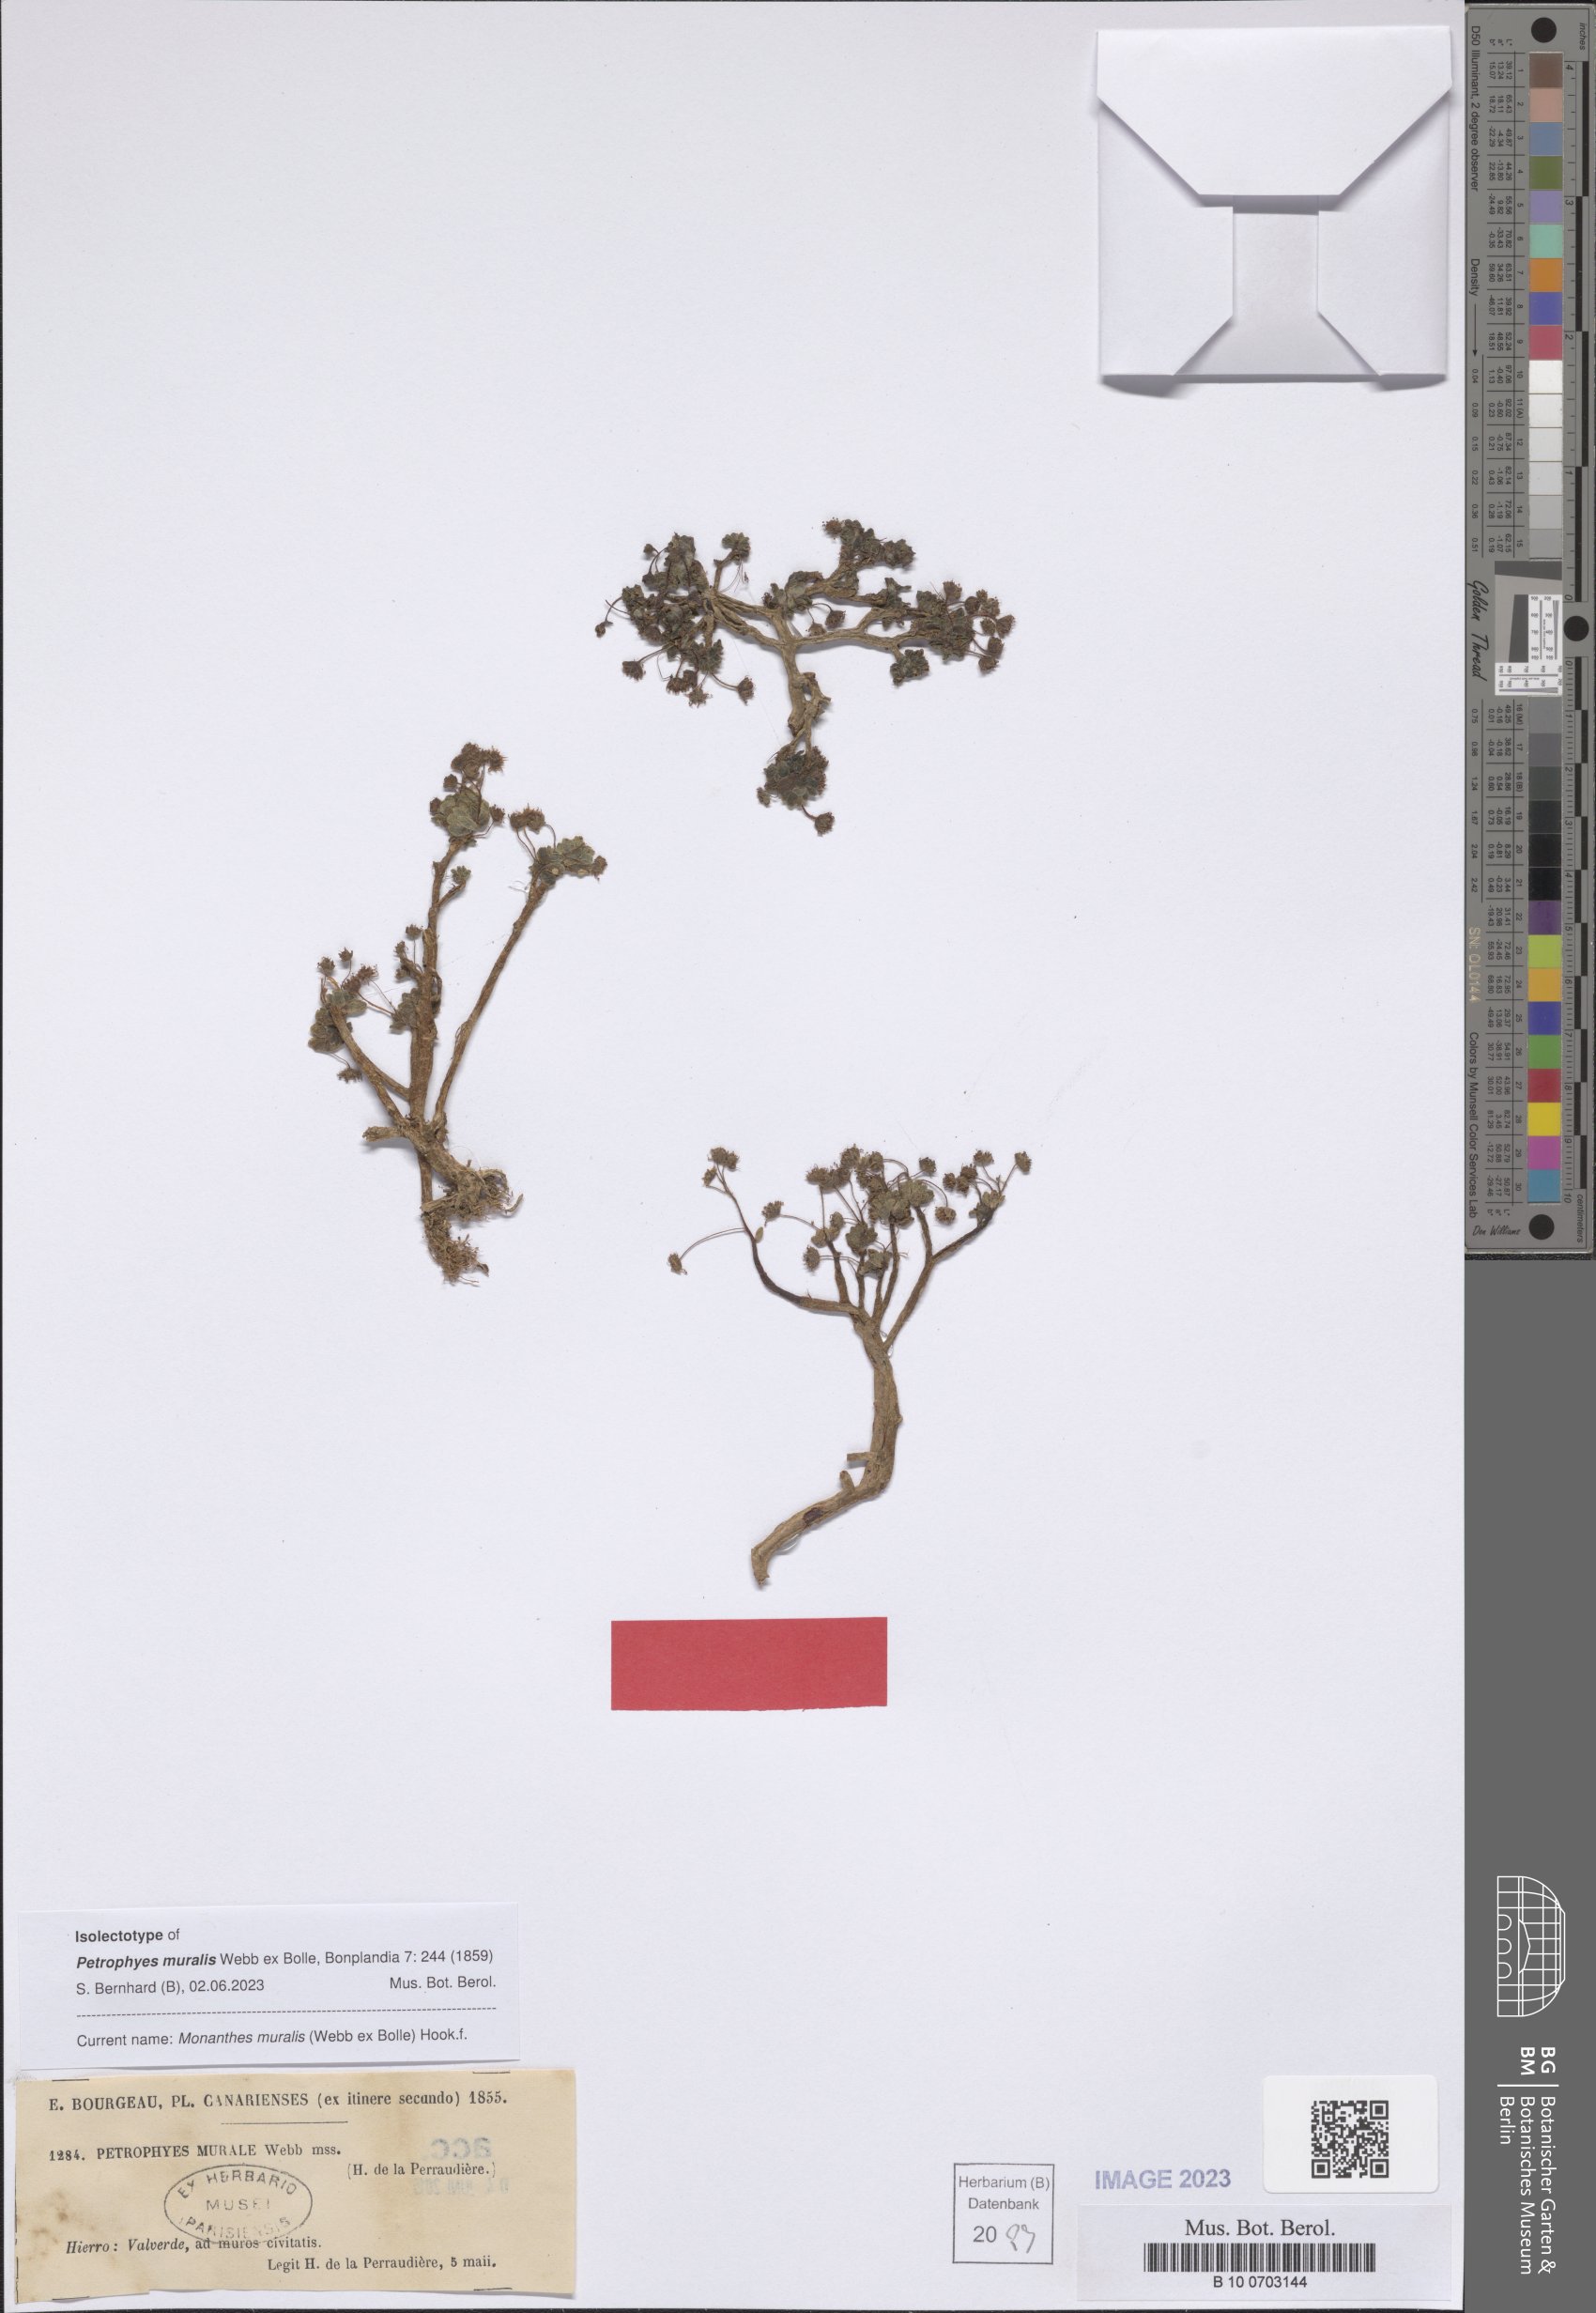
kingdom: Plantae
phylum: Tracheophyta
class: Magnoliopsida
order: Saxifragales
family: Crassulaceae
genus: Monanthes
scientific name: Monanthes atlantica
